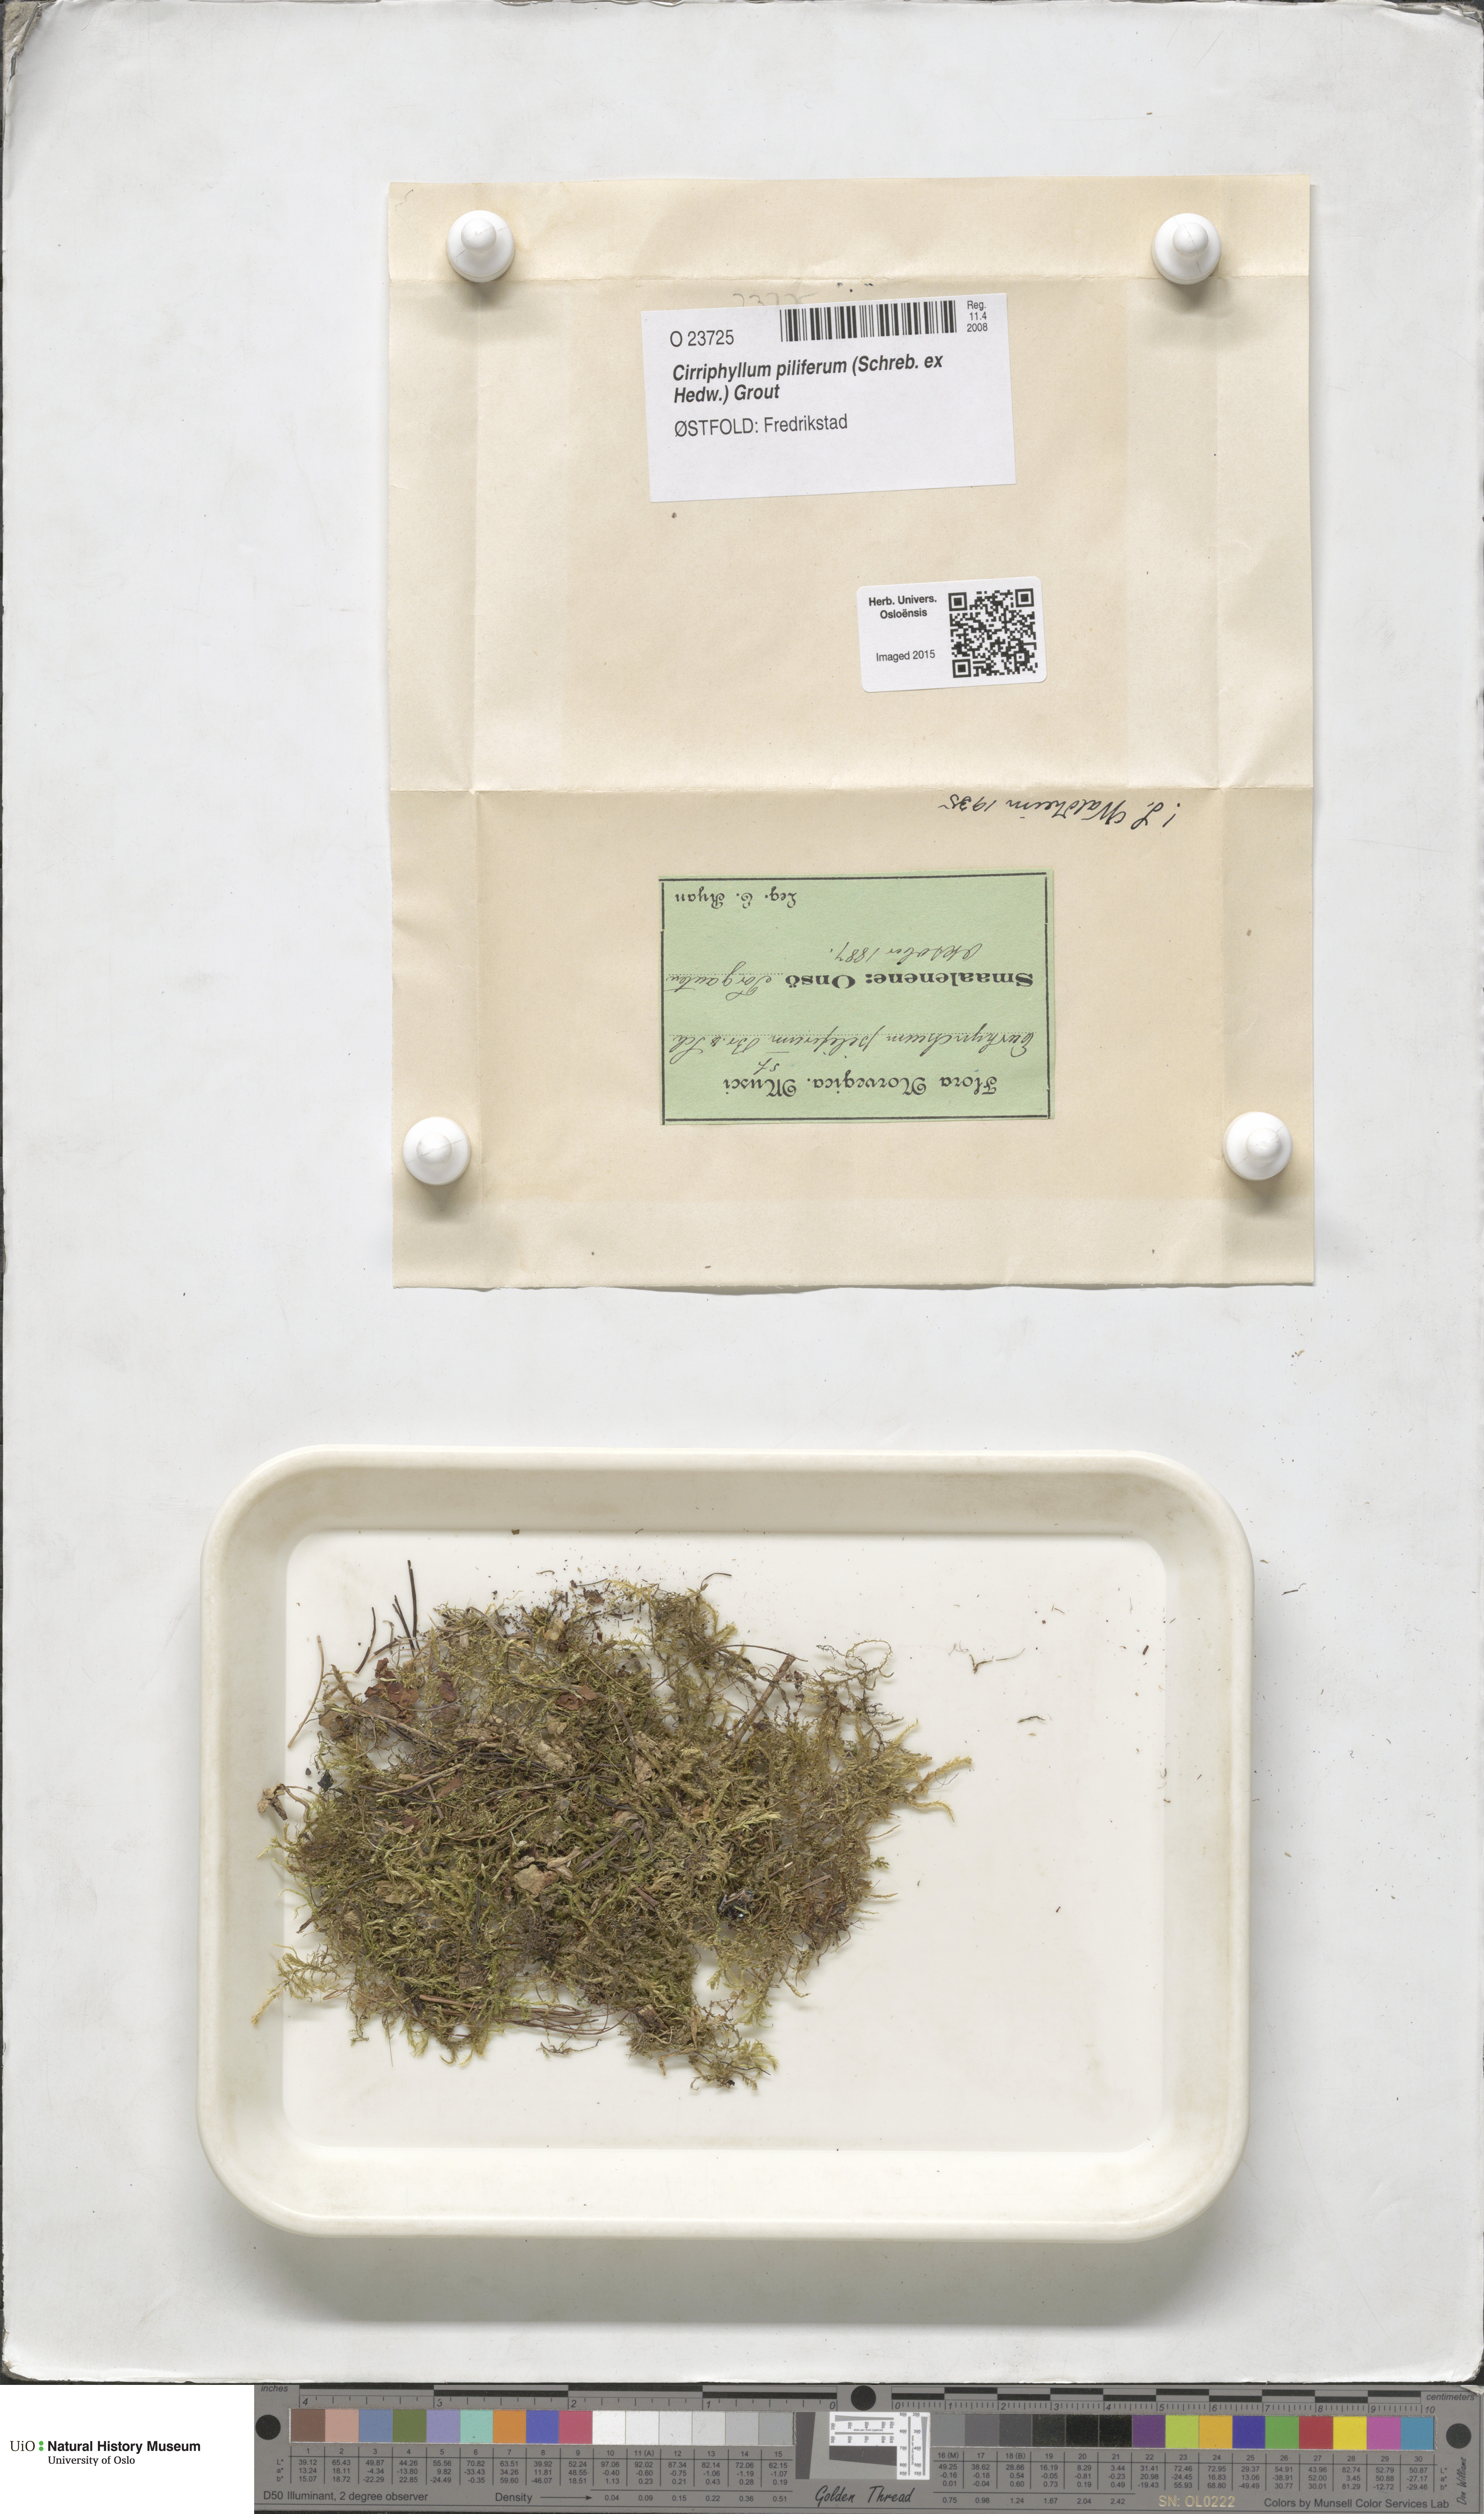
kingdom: Plantae
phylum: Bryophyta
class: Bryopsida
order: Hypnales
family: Brachytheciaceae
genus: Cirriphyllum
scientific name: Cirriphyllum piliferum
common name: Hair-pointed moss
